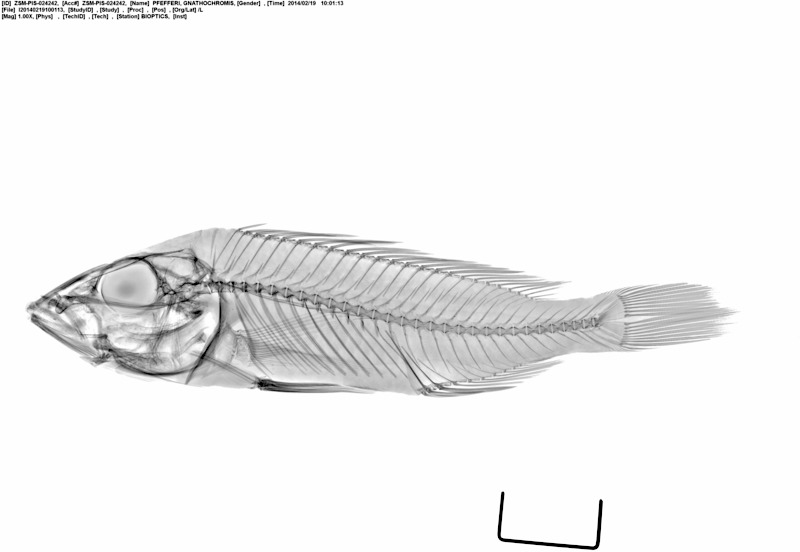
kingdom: Animalia
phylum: Chordata
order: Perciformes
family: Cichlidae
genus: Gnathochromis
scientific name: Gnathochromis pfefferi
